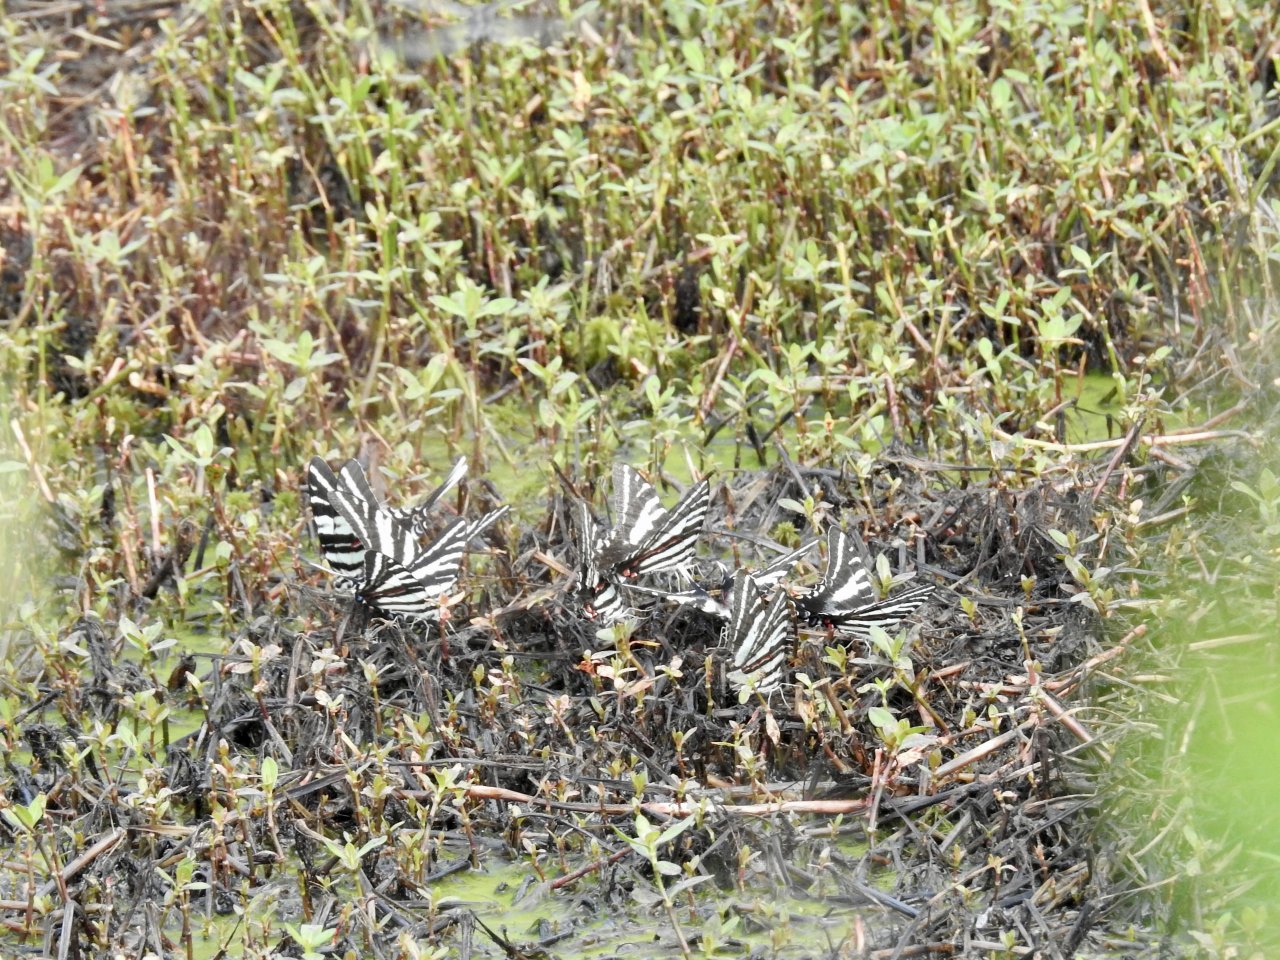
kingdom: Animalia
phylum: Arthropoda
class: Insecta
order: Lepidoptera
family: Papilionidae
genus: Protographium
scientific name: Protographium marcellus
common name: Zebra Swallowtail
